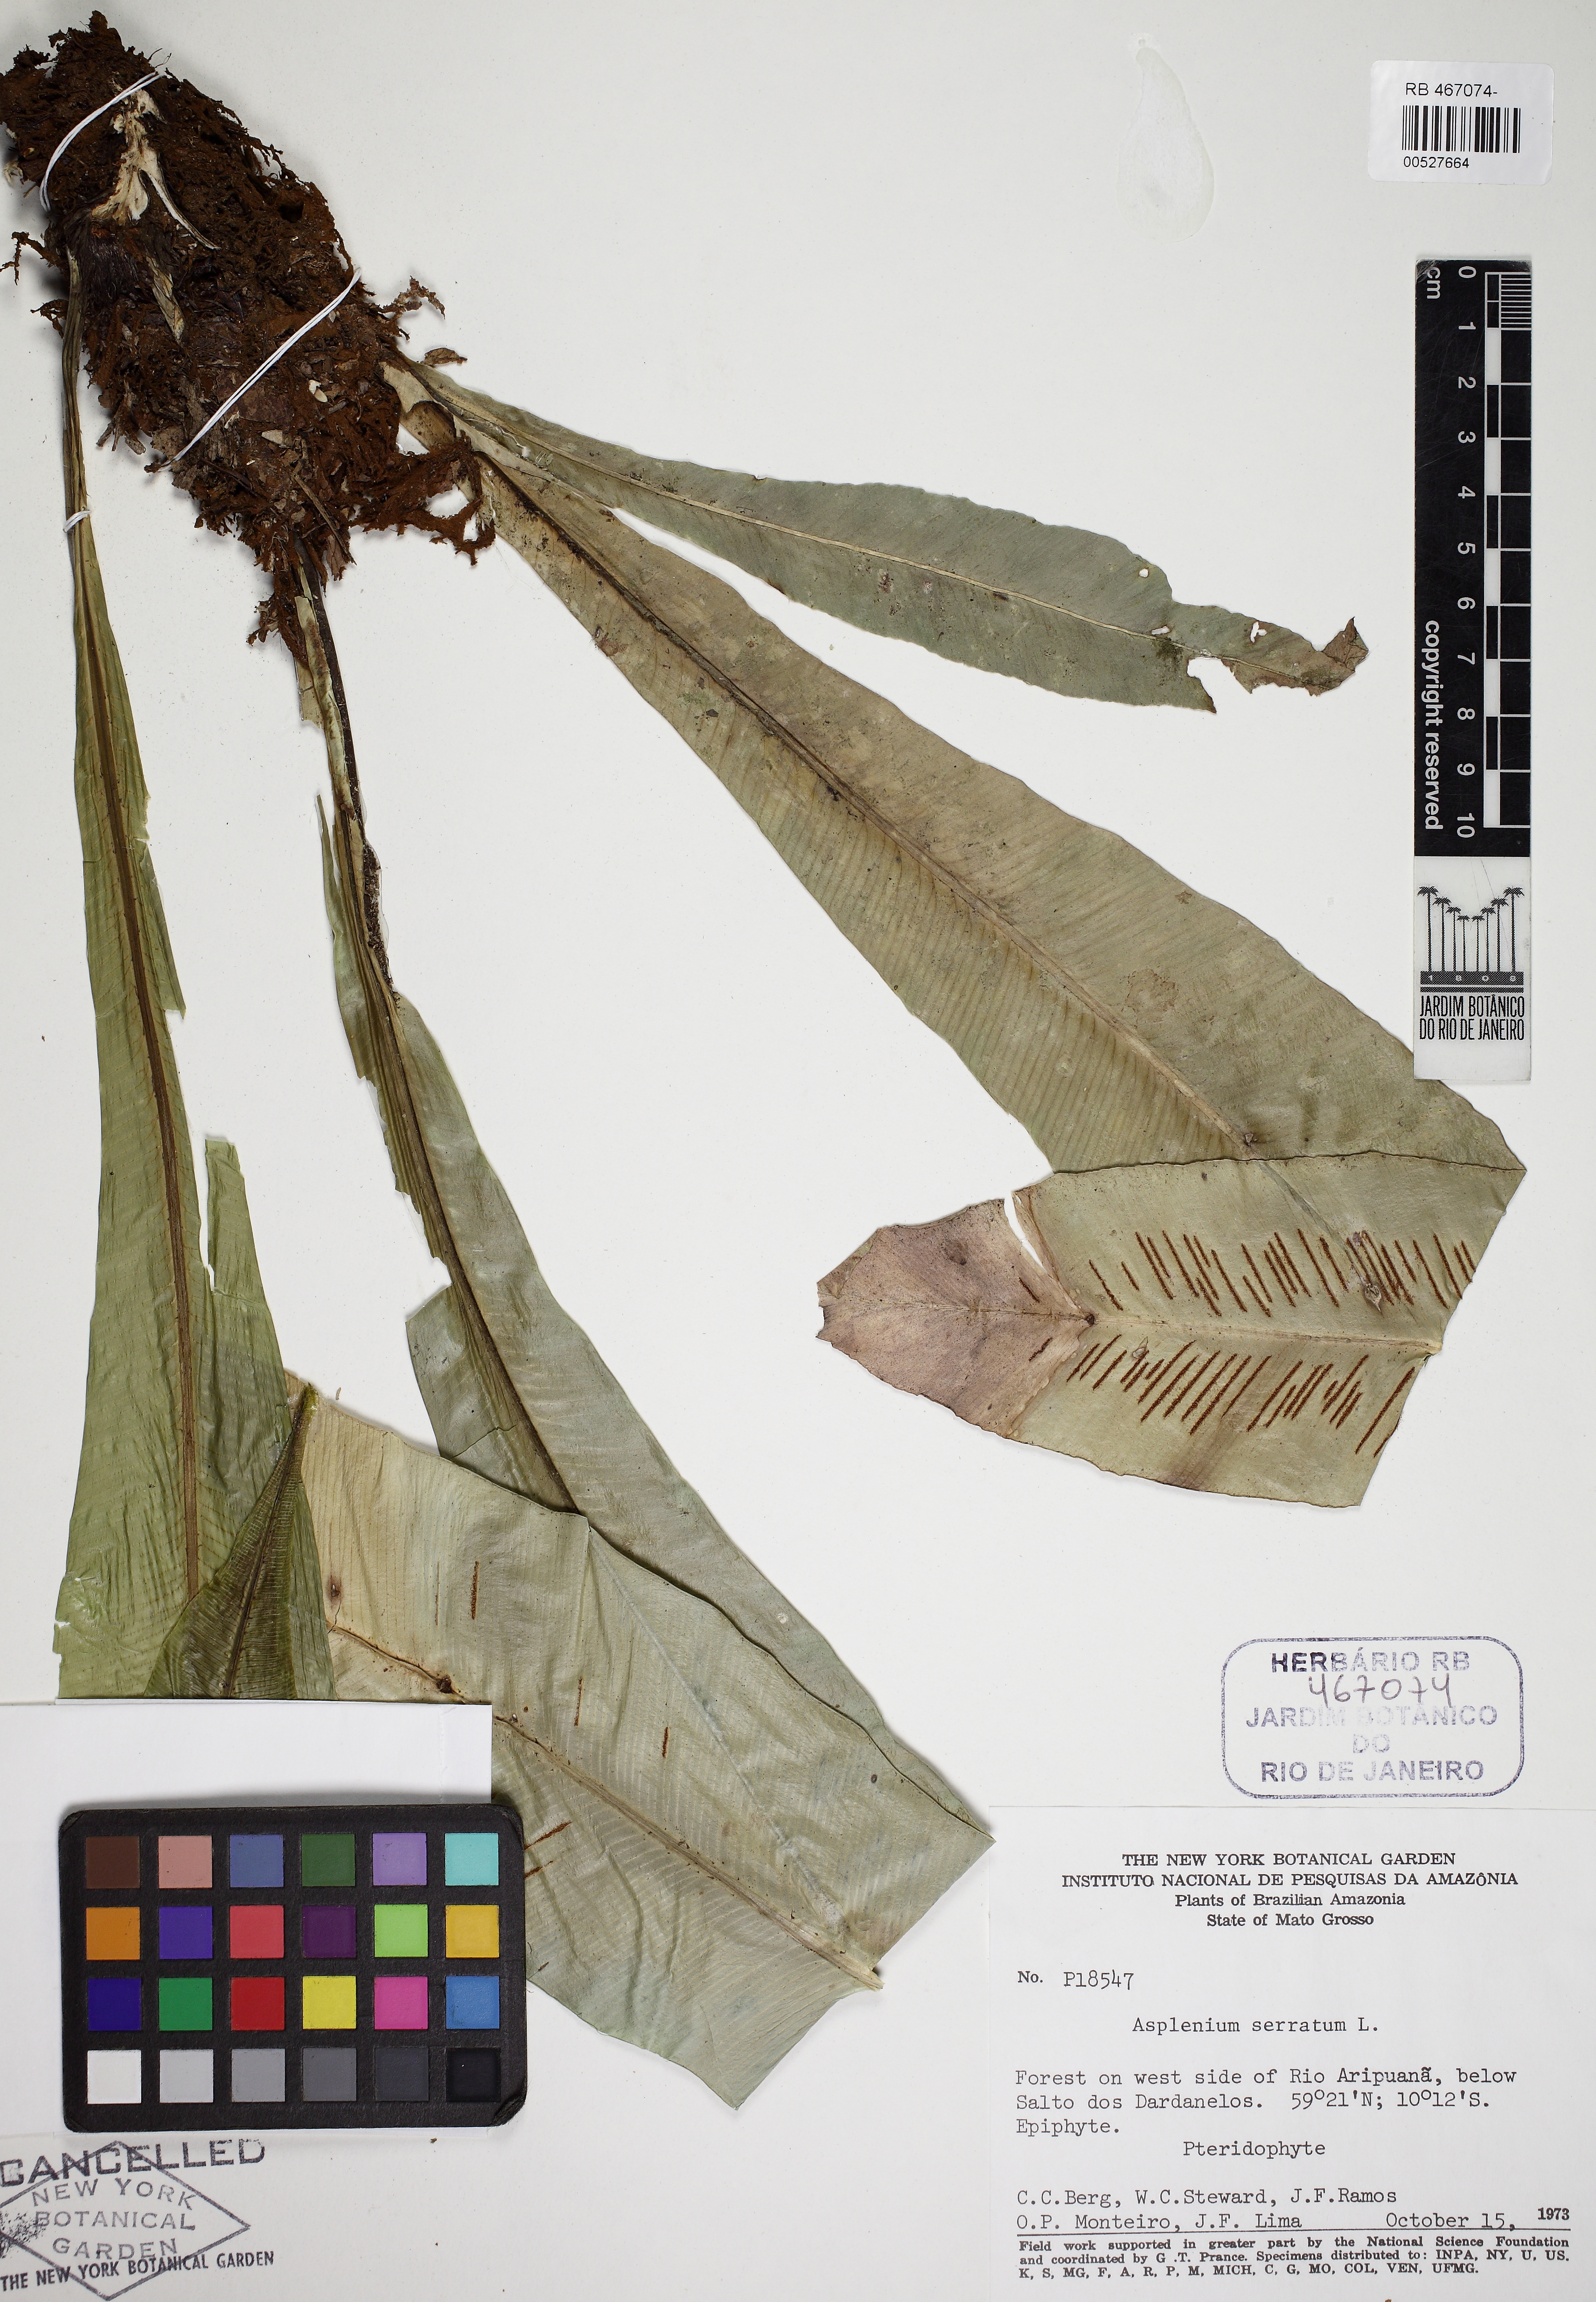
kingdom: Plantae
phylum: Tracheophyta
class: Polypodiopsida
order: Polypodiales
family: Aspleniaceae
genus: Asplenium
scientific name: Asplenium serratum
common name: Wild birdnest fern
